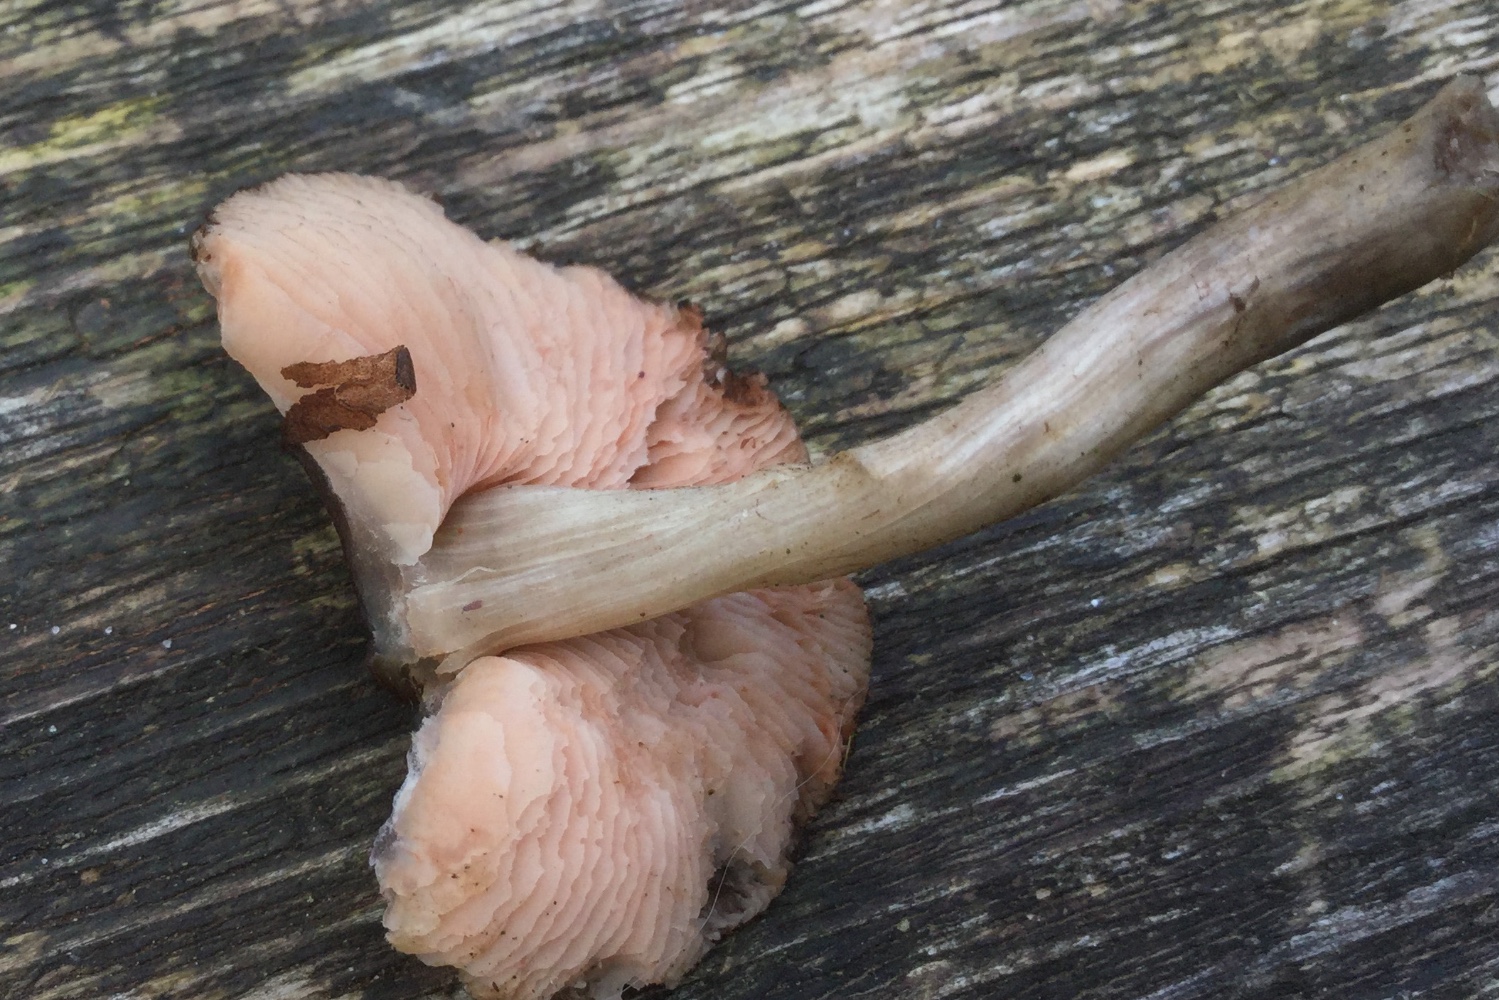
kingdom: Fungi
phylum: Basidiomycota
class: Agaricomycetes
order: Agaricales
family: Pluteaceae
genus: Pluteus
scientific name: Pluteus
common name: pudret skærmhat
